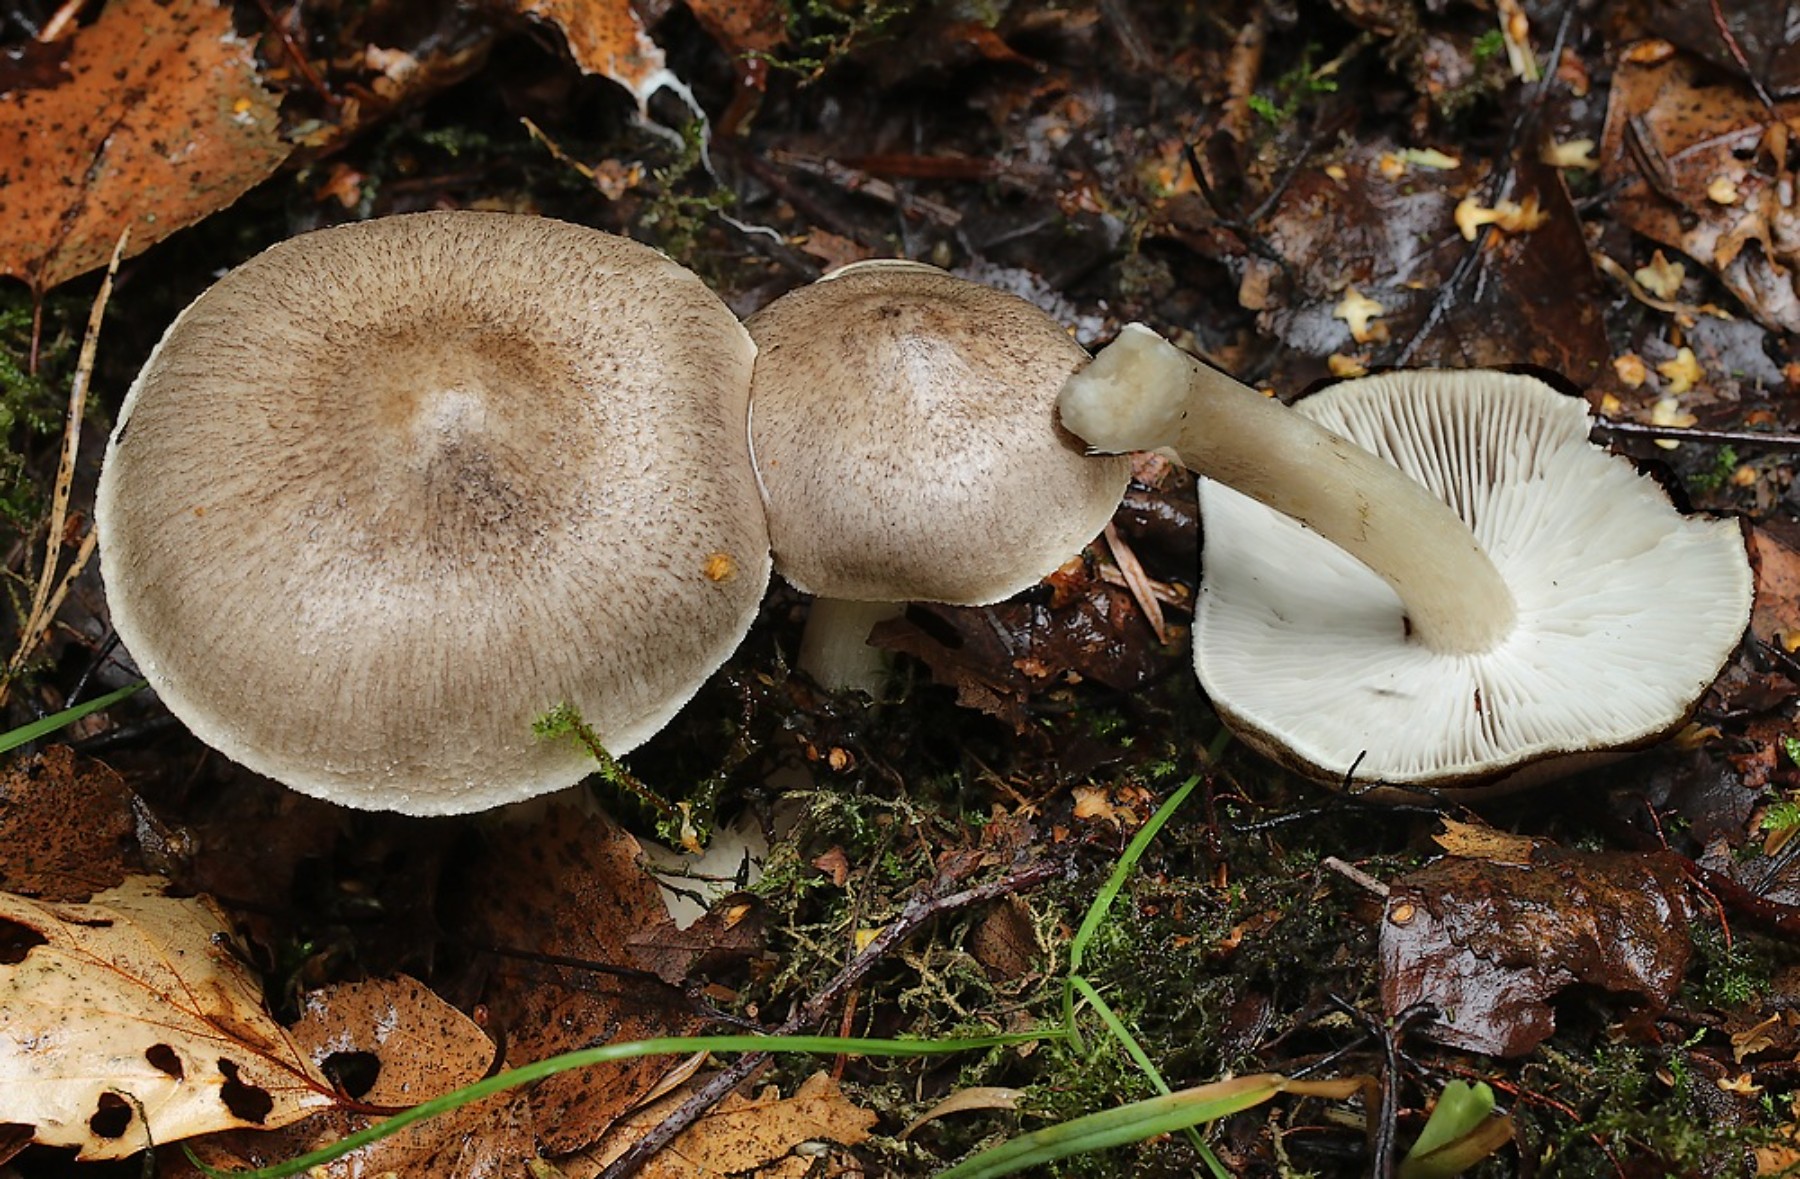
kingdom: Fungi
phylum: Basidiomycota
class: Agaricomycetes
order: Agaricales
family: Tricholomataceae
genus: Tricholoma
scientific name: Tricholoma scalpturatum
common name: gulplettet ridderhat
